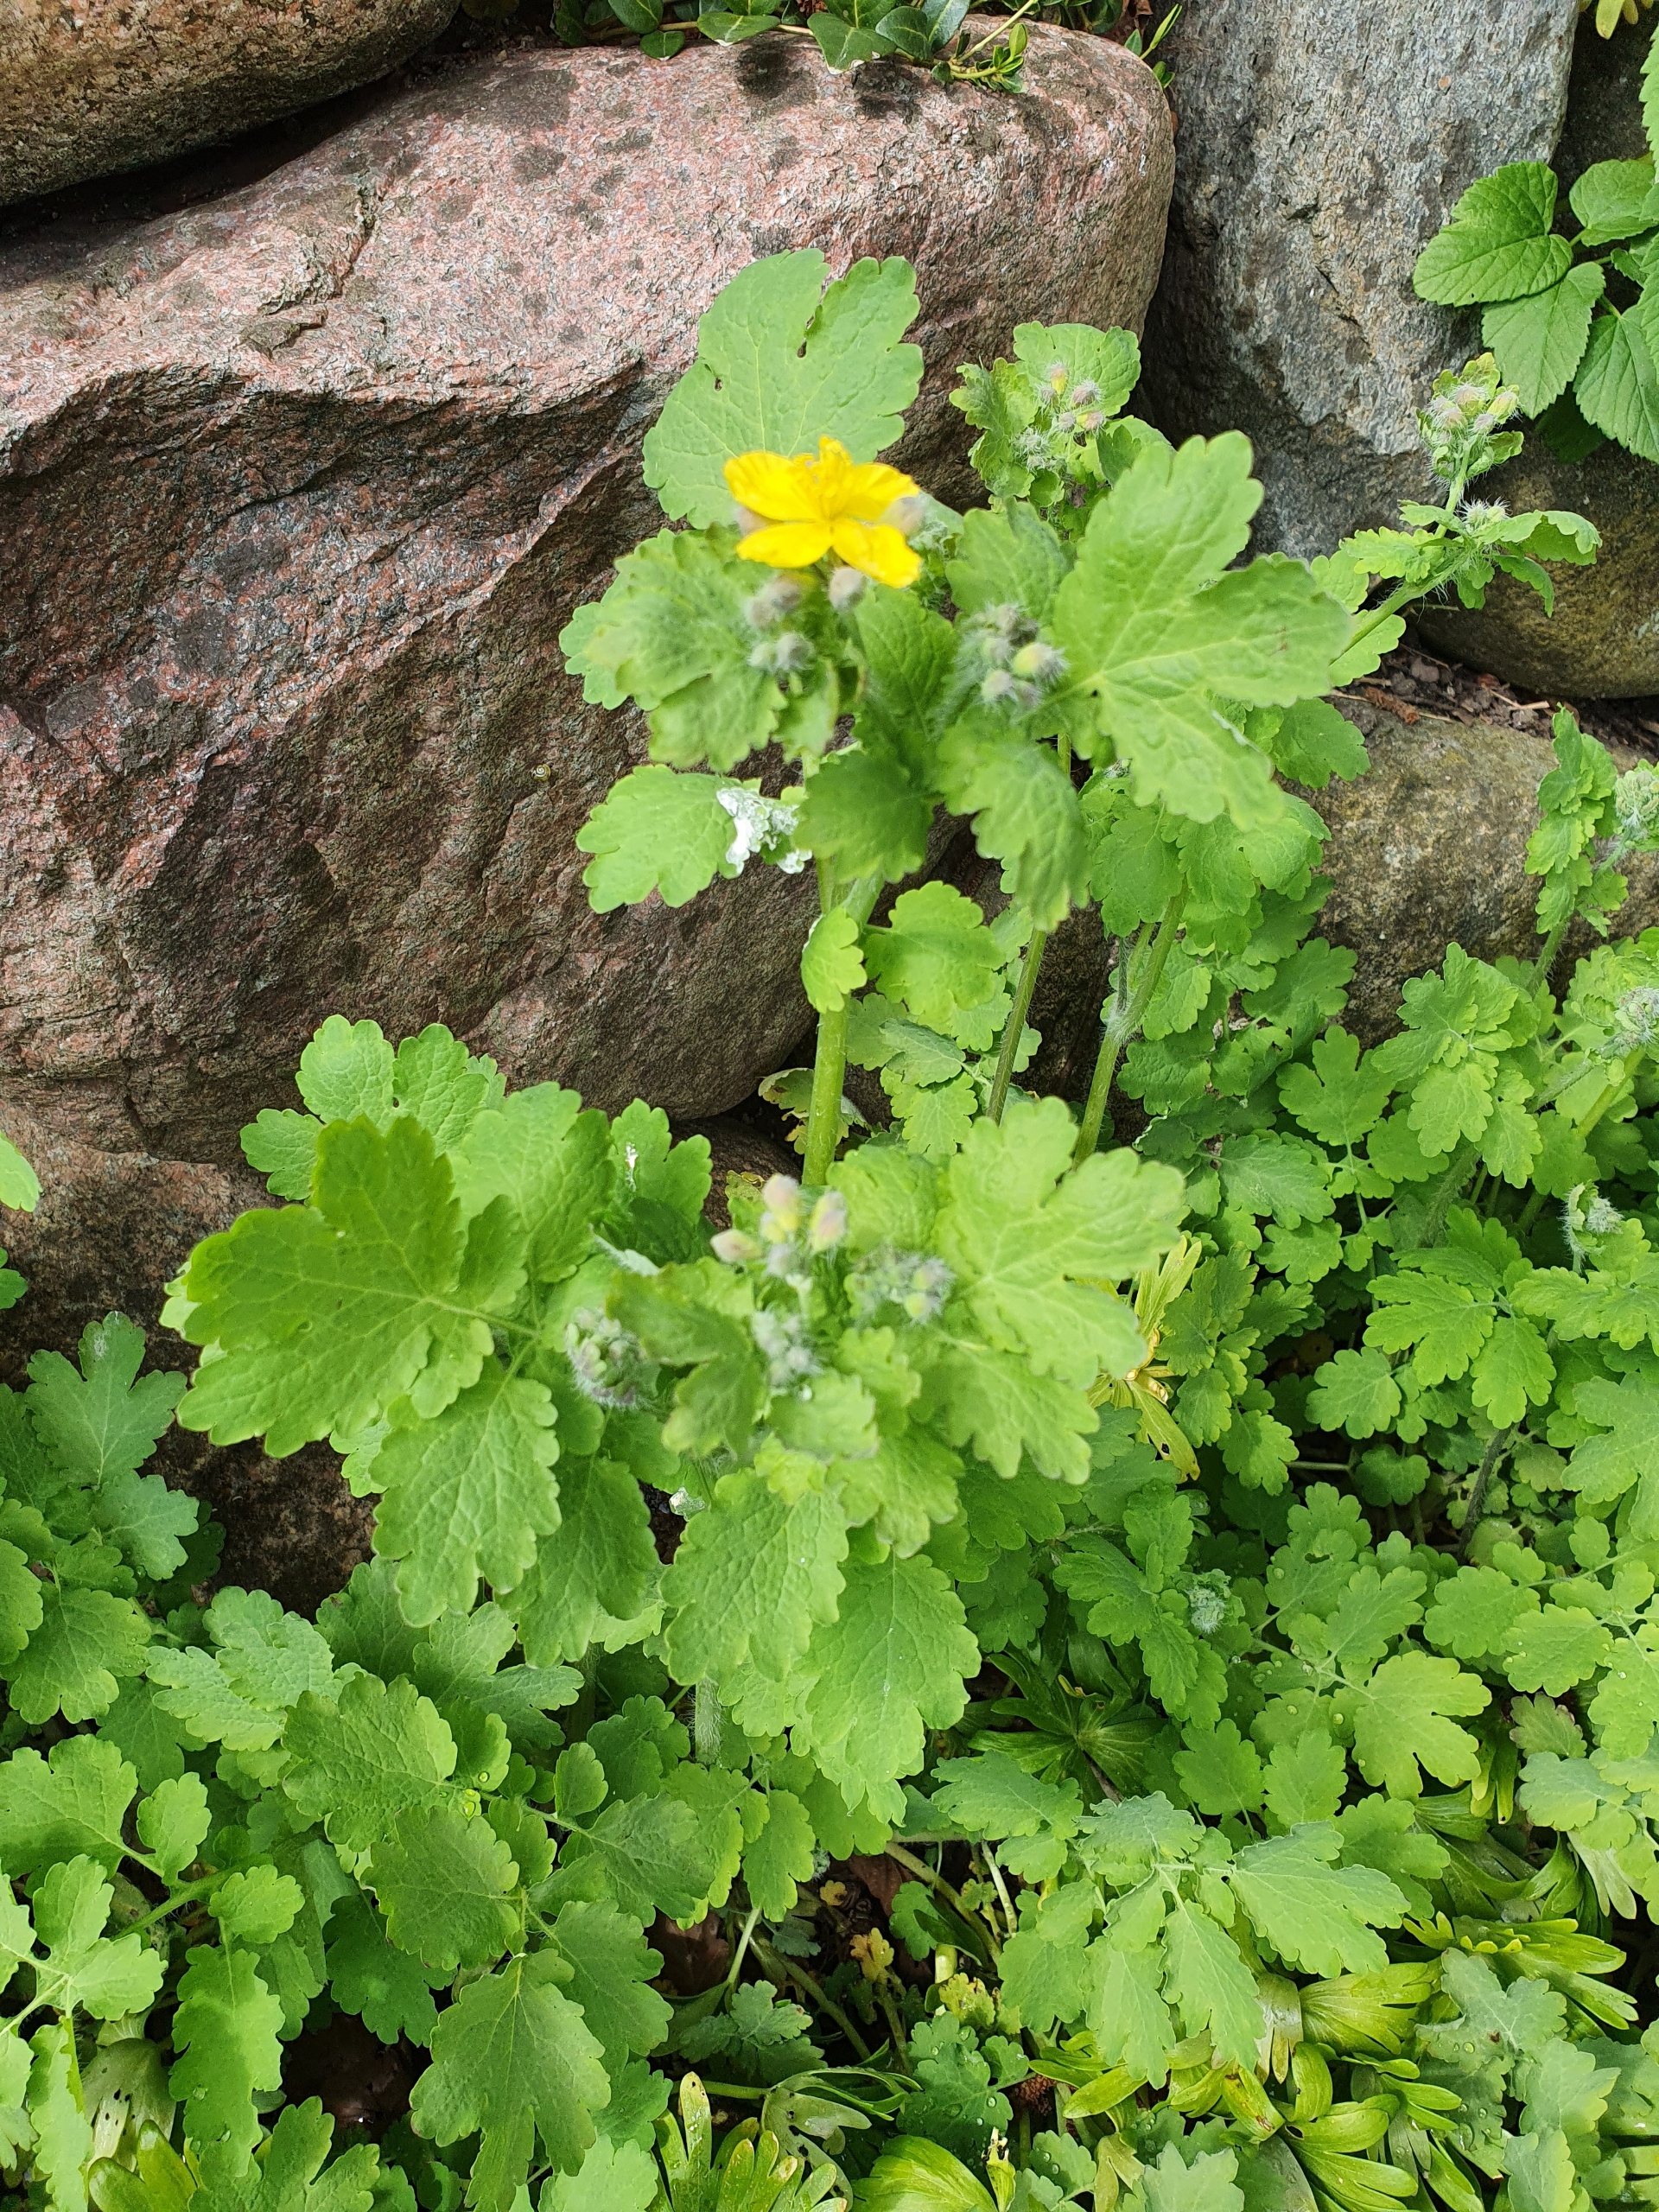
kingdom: Plantae
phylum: Tracheophyta
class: Magnoliopsida
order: Ranunculales
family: Papaveraceae
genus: Chelidonium
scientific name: Chelidonium majus
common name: Svaleurt
